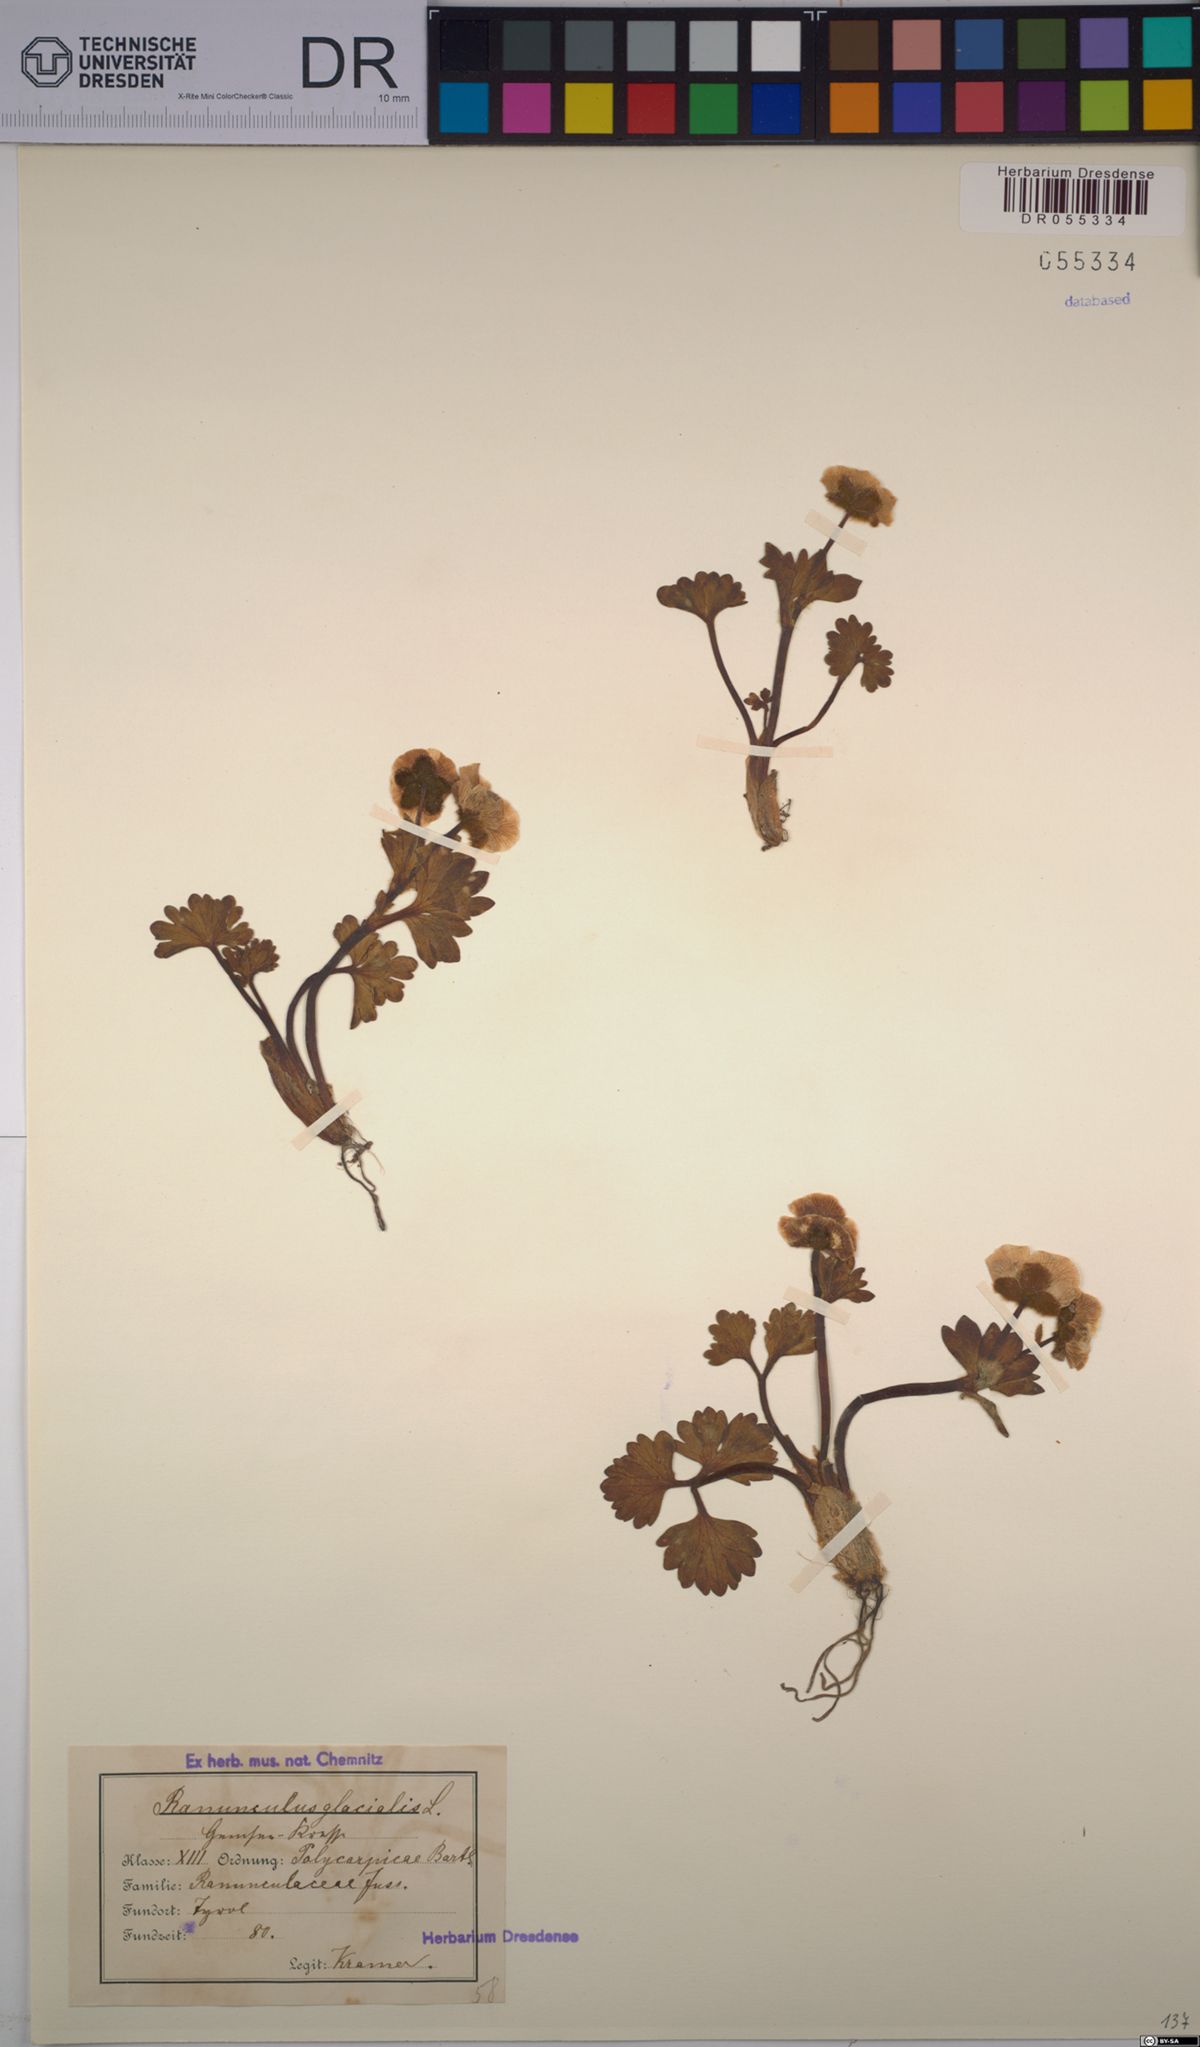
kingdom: Plantae
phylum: Tracheophyta
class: Magnoliopsida
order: Ranunculales
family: Ranunculaceae
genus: Ranunculus
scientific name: Ranunculus glacialis
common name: Glacier buttercup
